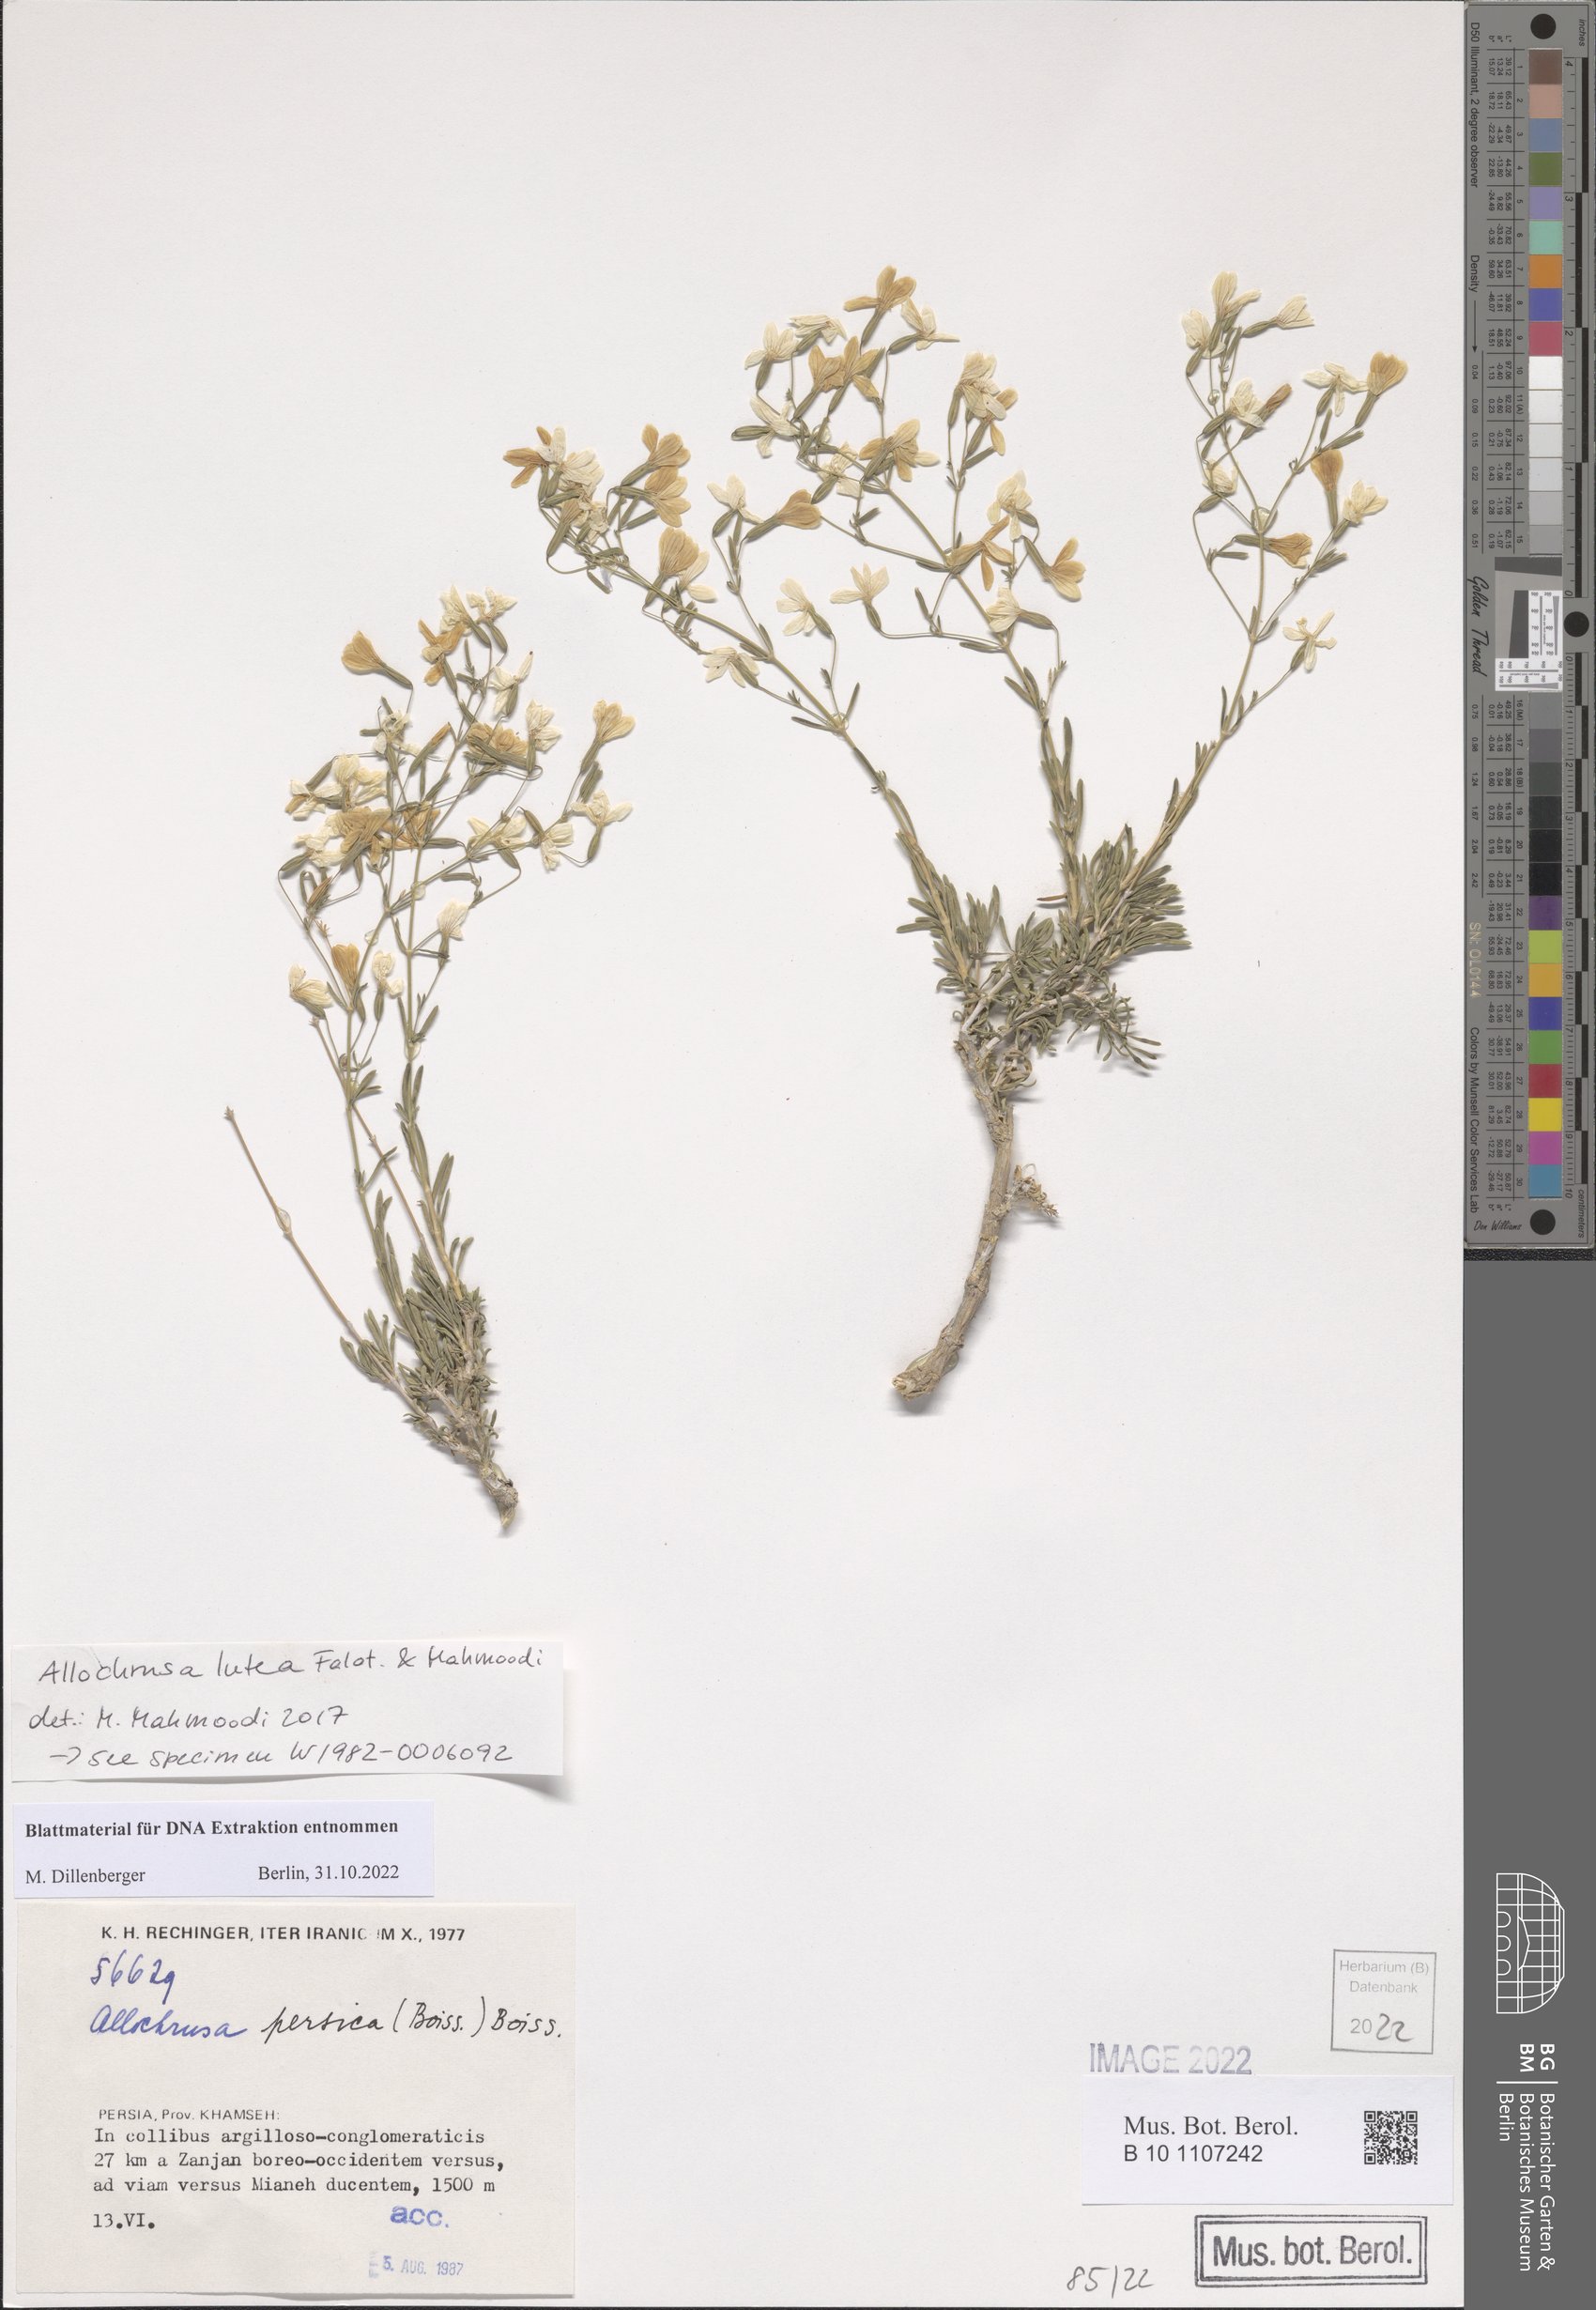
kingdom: Plantae
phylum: Tracheophyta
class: Magnoliopsida
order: Caryophyllales
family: Caryophyllaceae
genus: Acanthophyllum
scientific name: Acanthophyllum luteum
